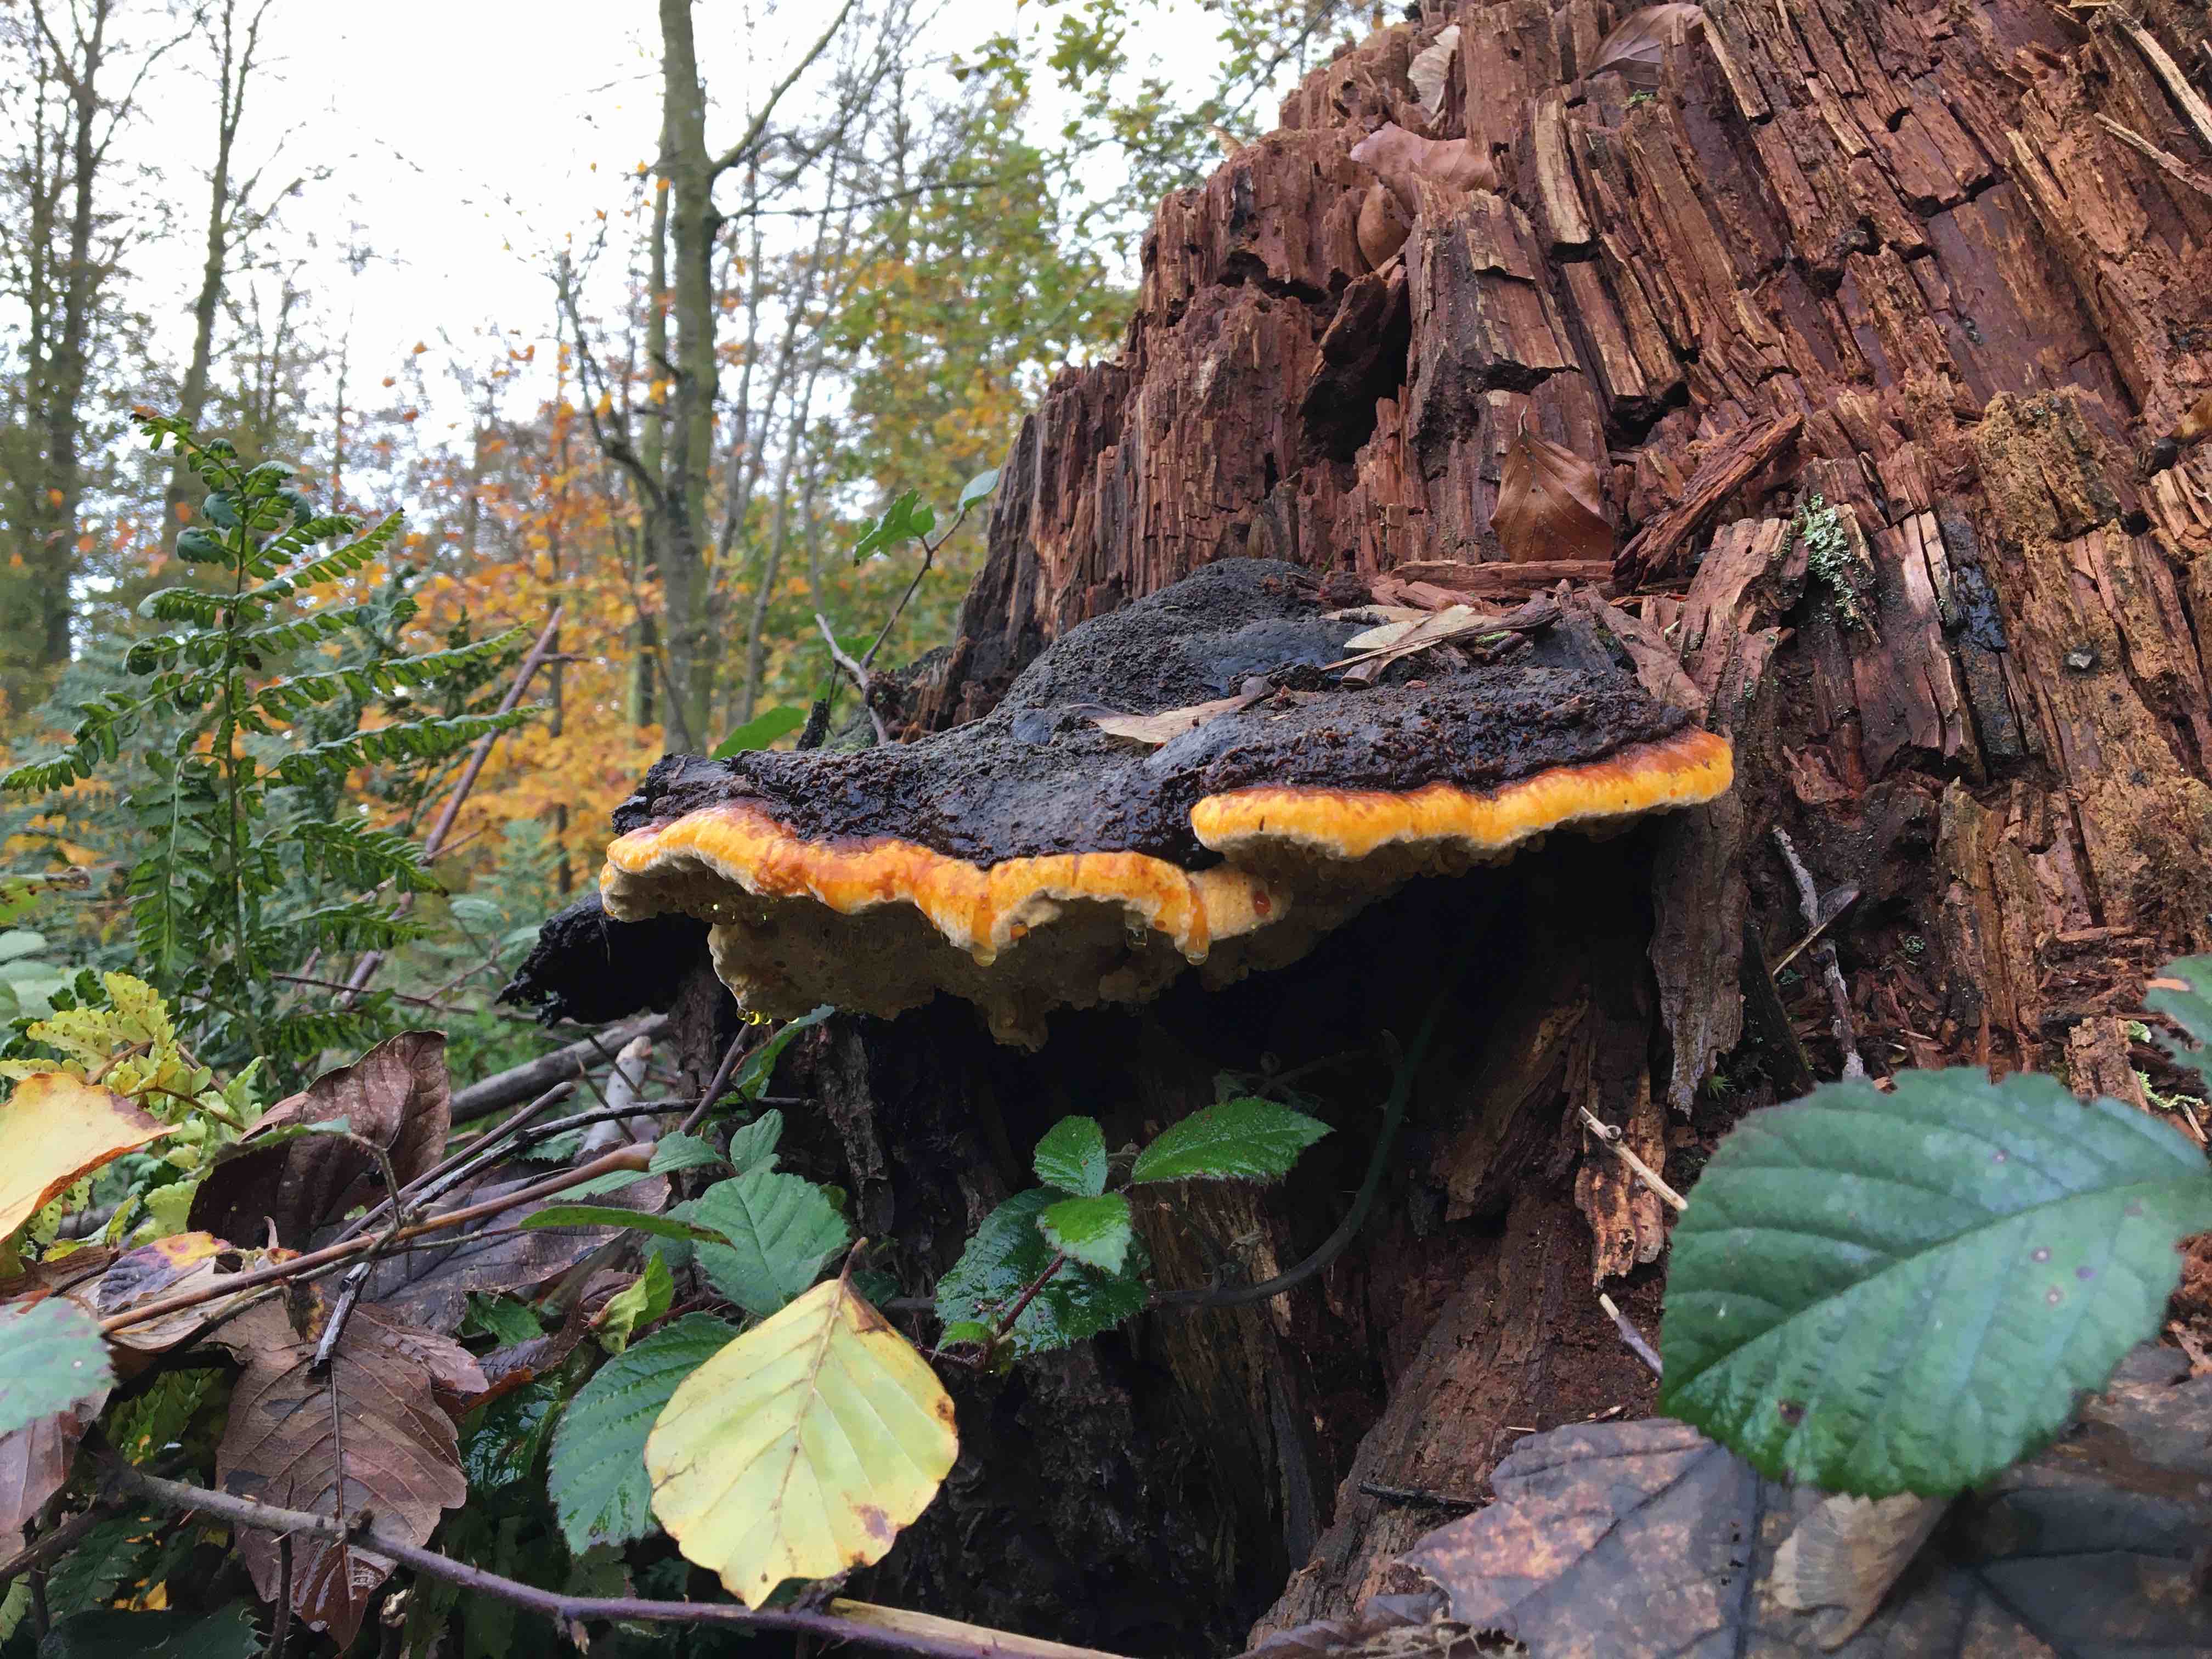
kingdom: Fungi
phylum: Basidiomycota
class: Agaricomycetes
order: Polyporales
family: Fomitopsidaceae
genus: Fomitopsis
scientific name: Fomitopsis pinicola
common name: randbæltet hovporesvamp
